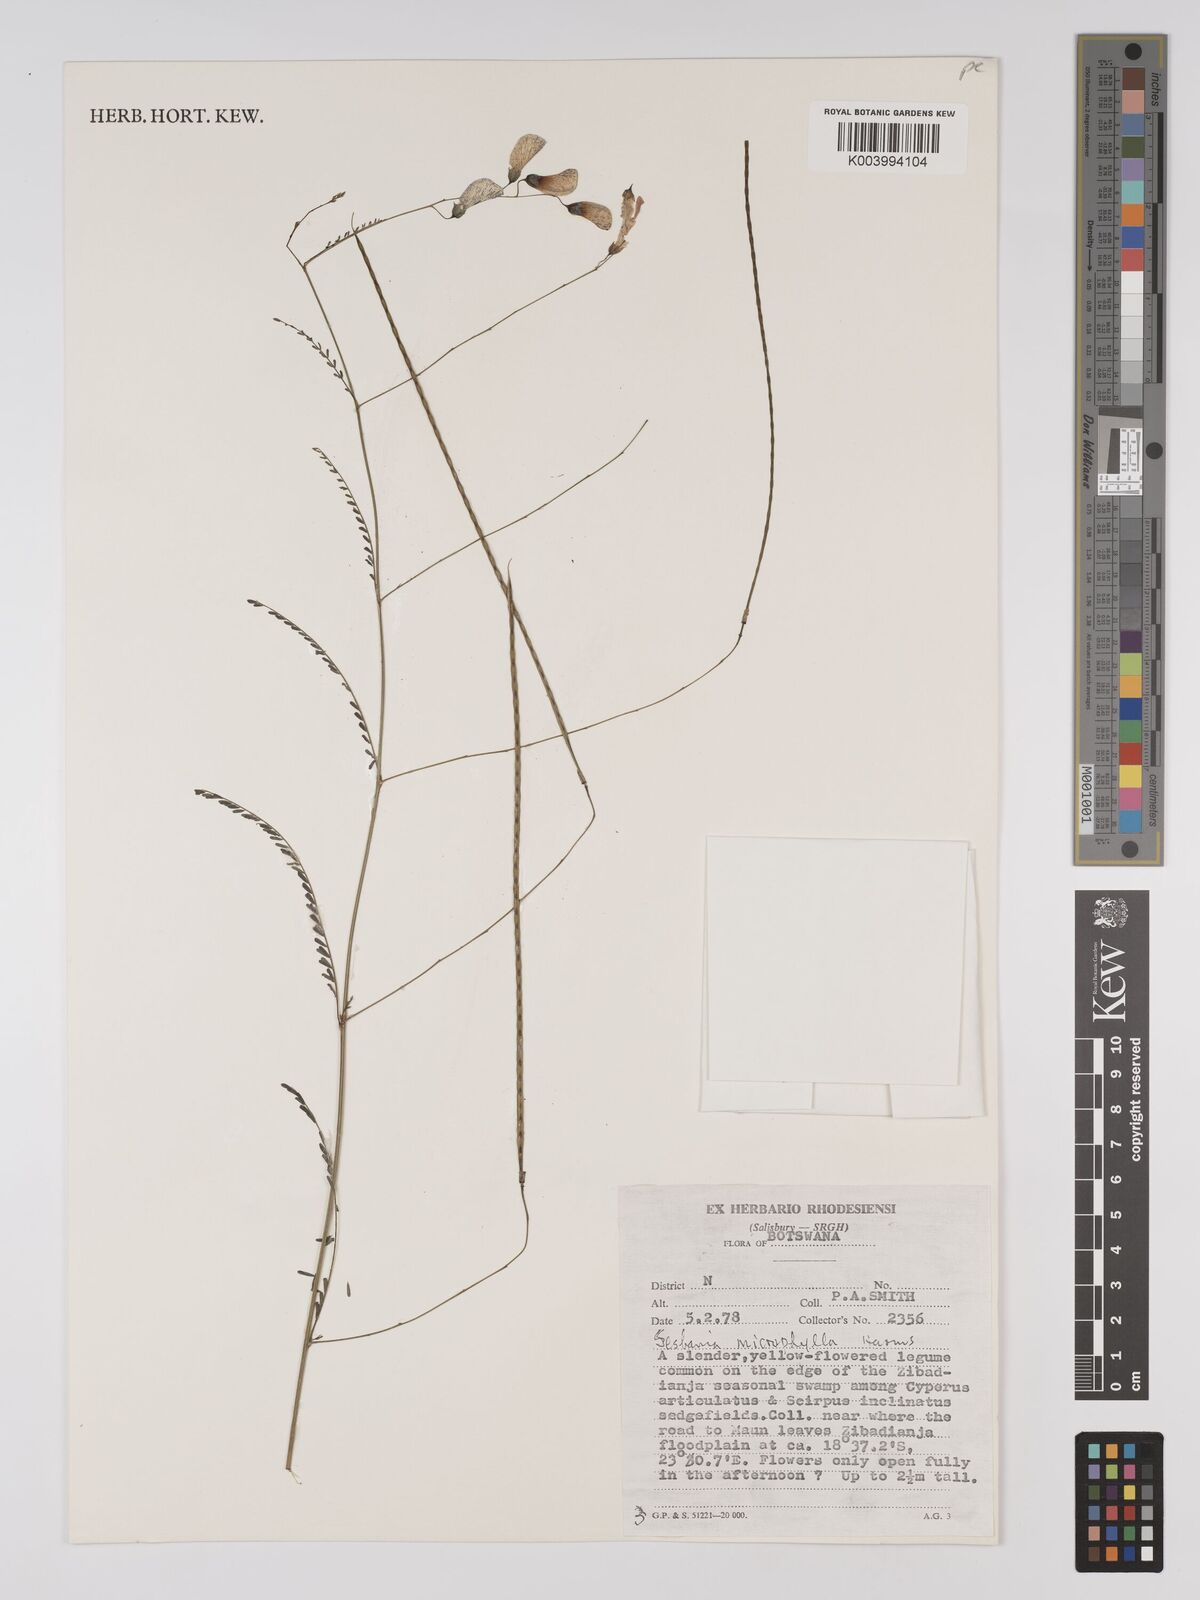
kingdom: Plantae
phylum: Tracheophyta
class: Magnoliopsida
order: Fabales
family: Fabaceae
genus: Sesbania
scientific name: Sesbania microphylla
